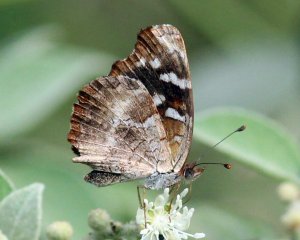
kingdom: Animalia
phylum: Arthropoda
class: Insecta
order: Lepidoptera
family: Nymphalidae
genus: Anthanassa
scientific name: Anthanassa argentea
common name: Chestnut Crescent
